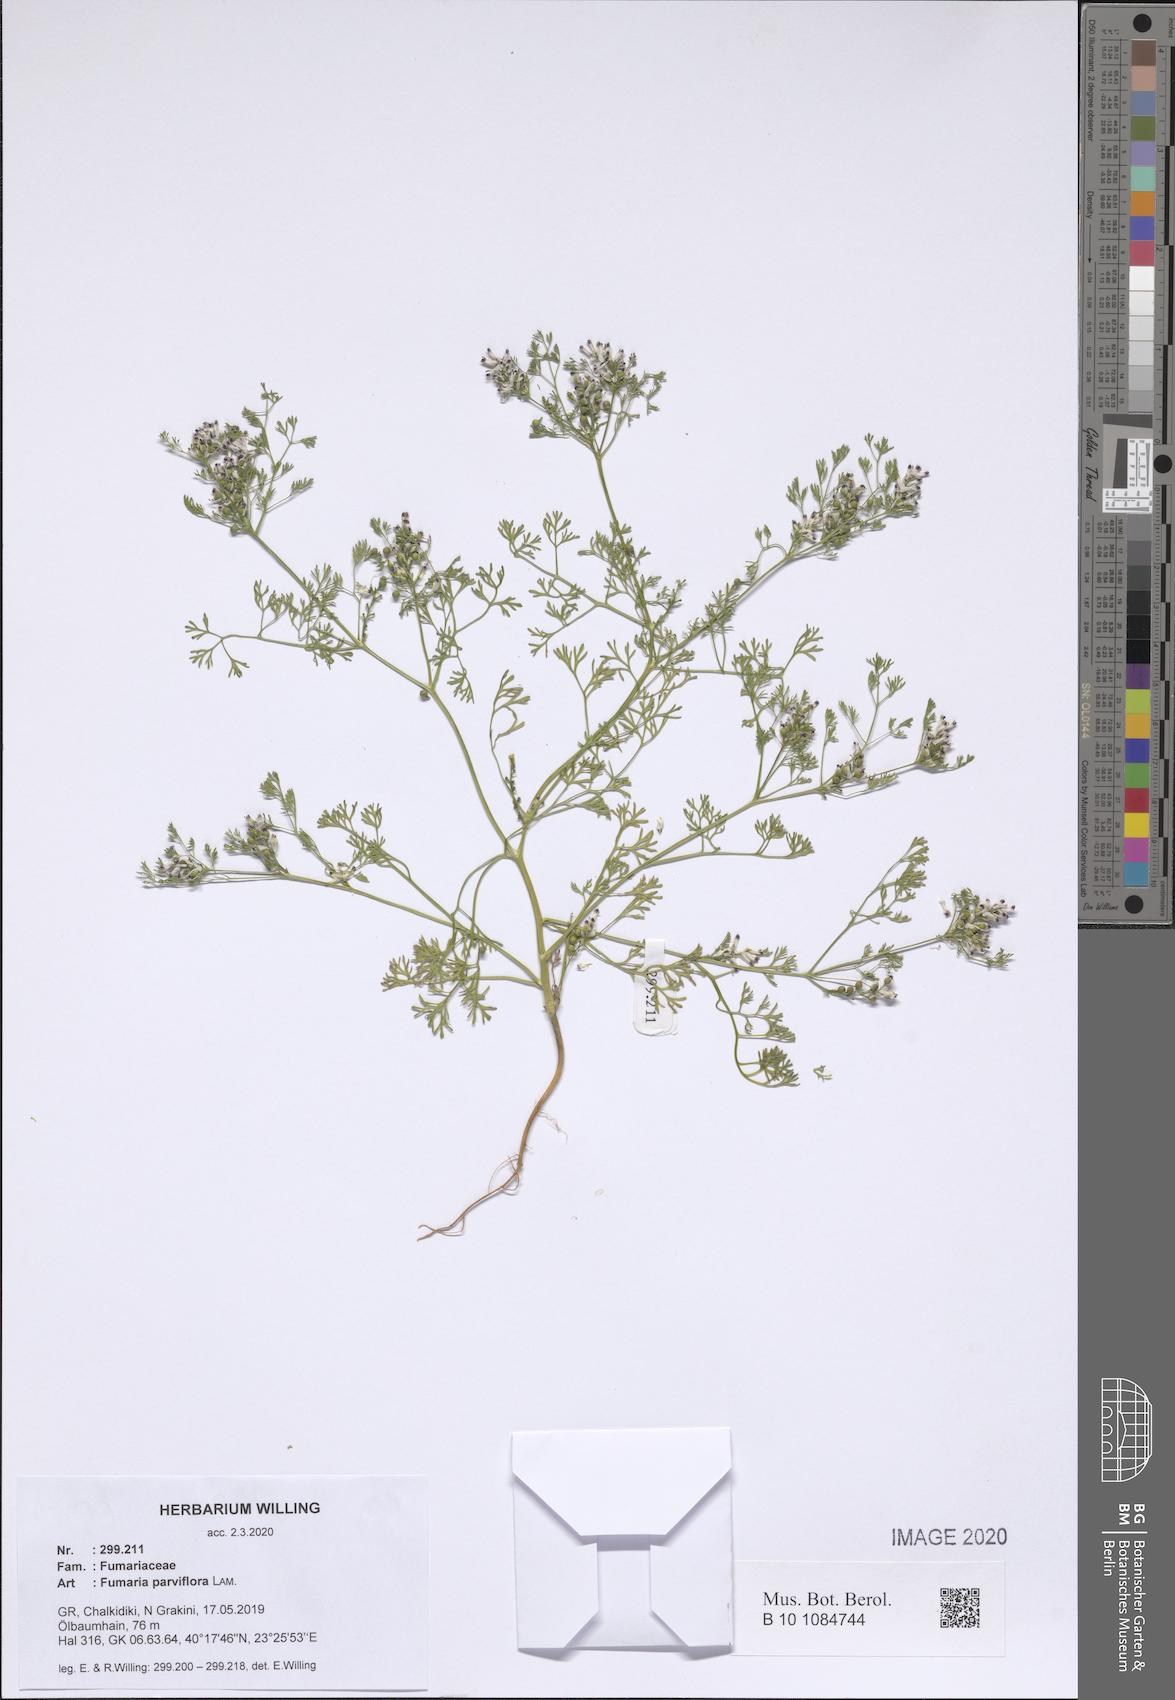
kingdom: Plantae
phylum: Tracheophyta
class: Magnoliopsida
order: Ranunculales
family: Papaveraceae
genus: Fumaria
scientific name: Fumaria parviflora
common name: Fine-leaved fumitory
